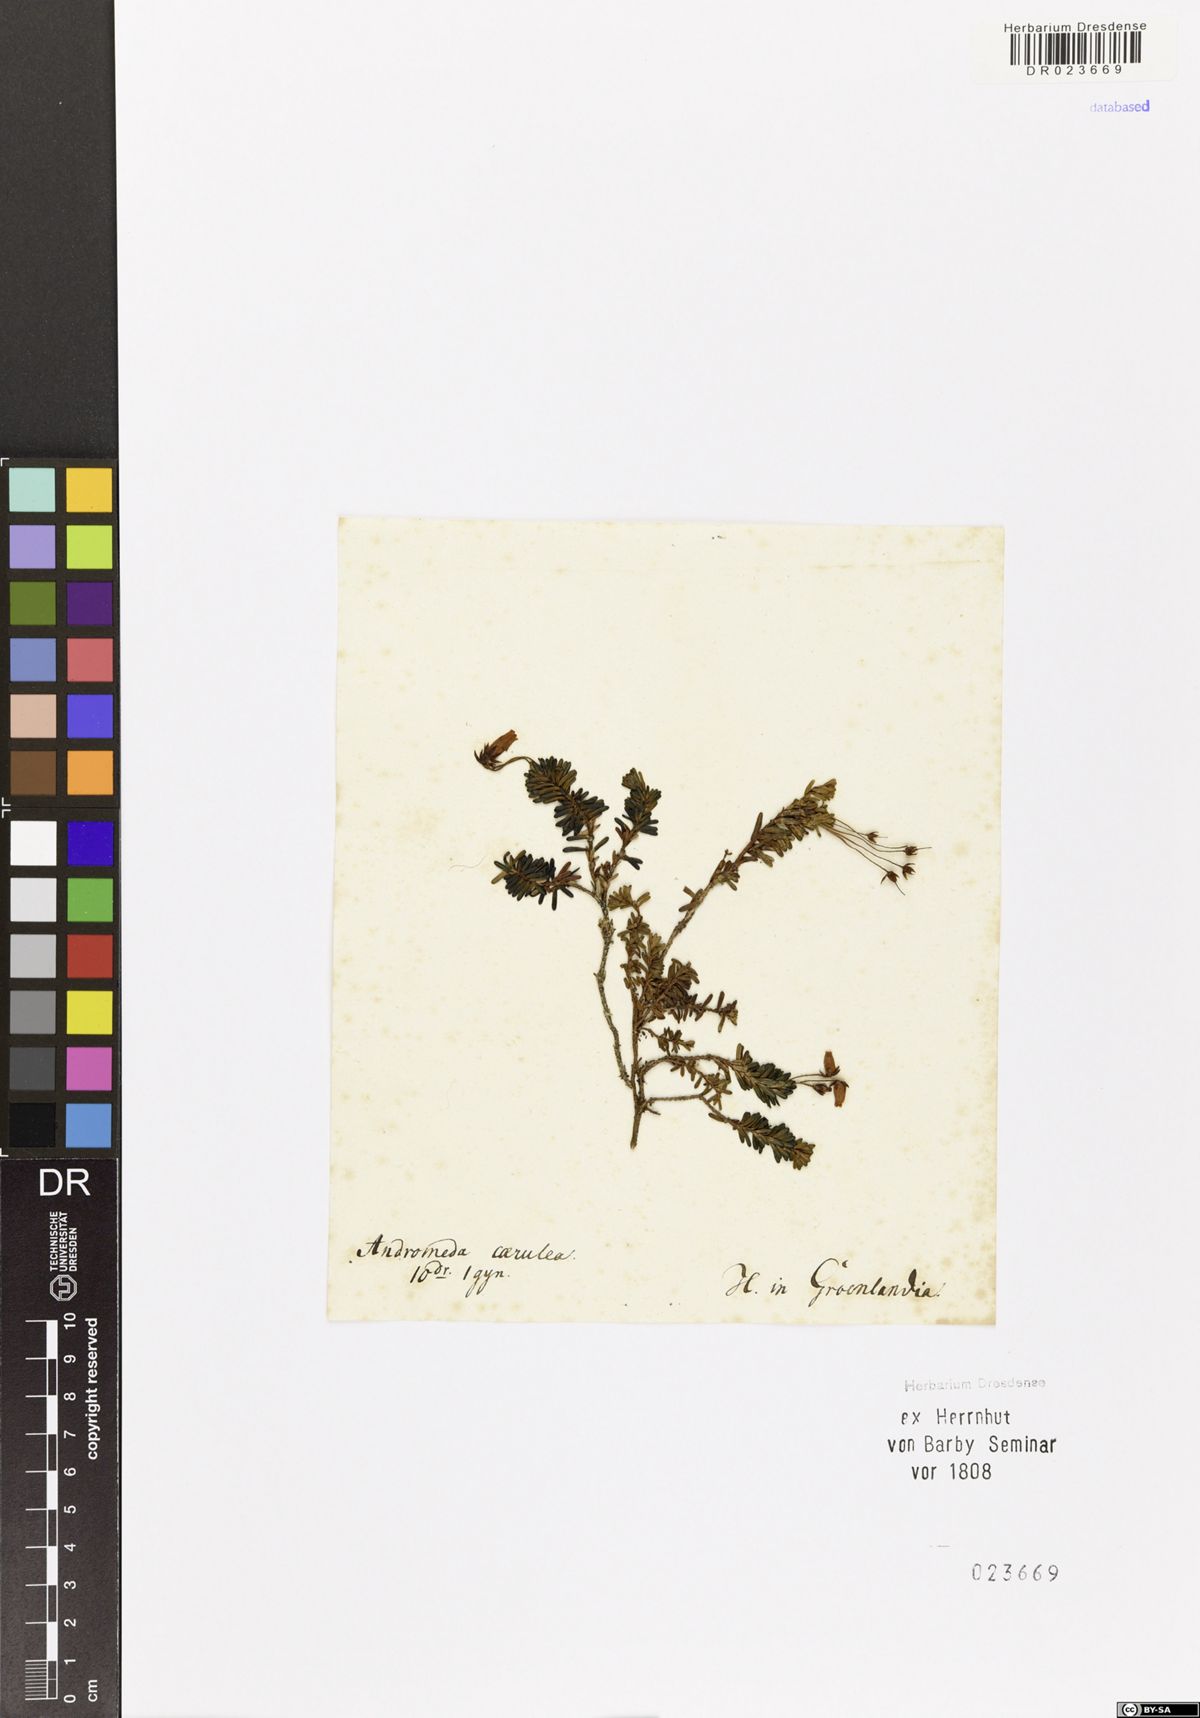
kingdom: Plantae
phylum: Tracheophyta
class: Magnoliopsida
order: Ericales
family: Ericaceae
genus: Phyllodoce
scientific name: Phyllodoce caerulea
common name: Blue heath
